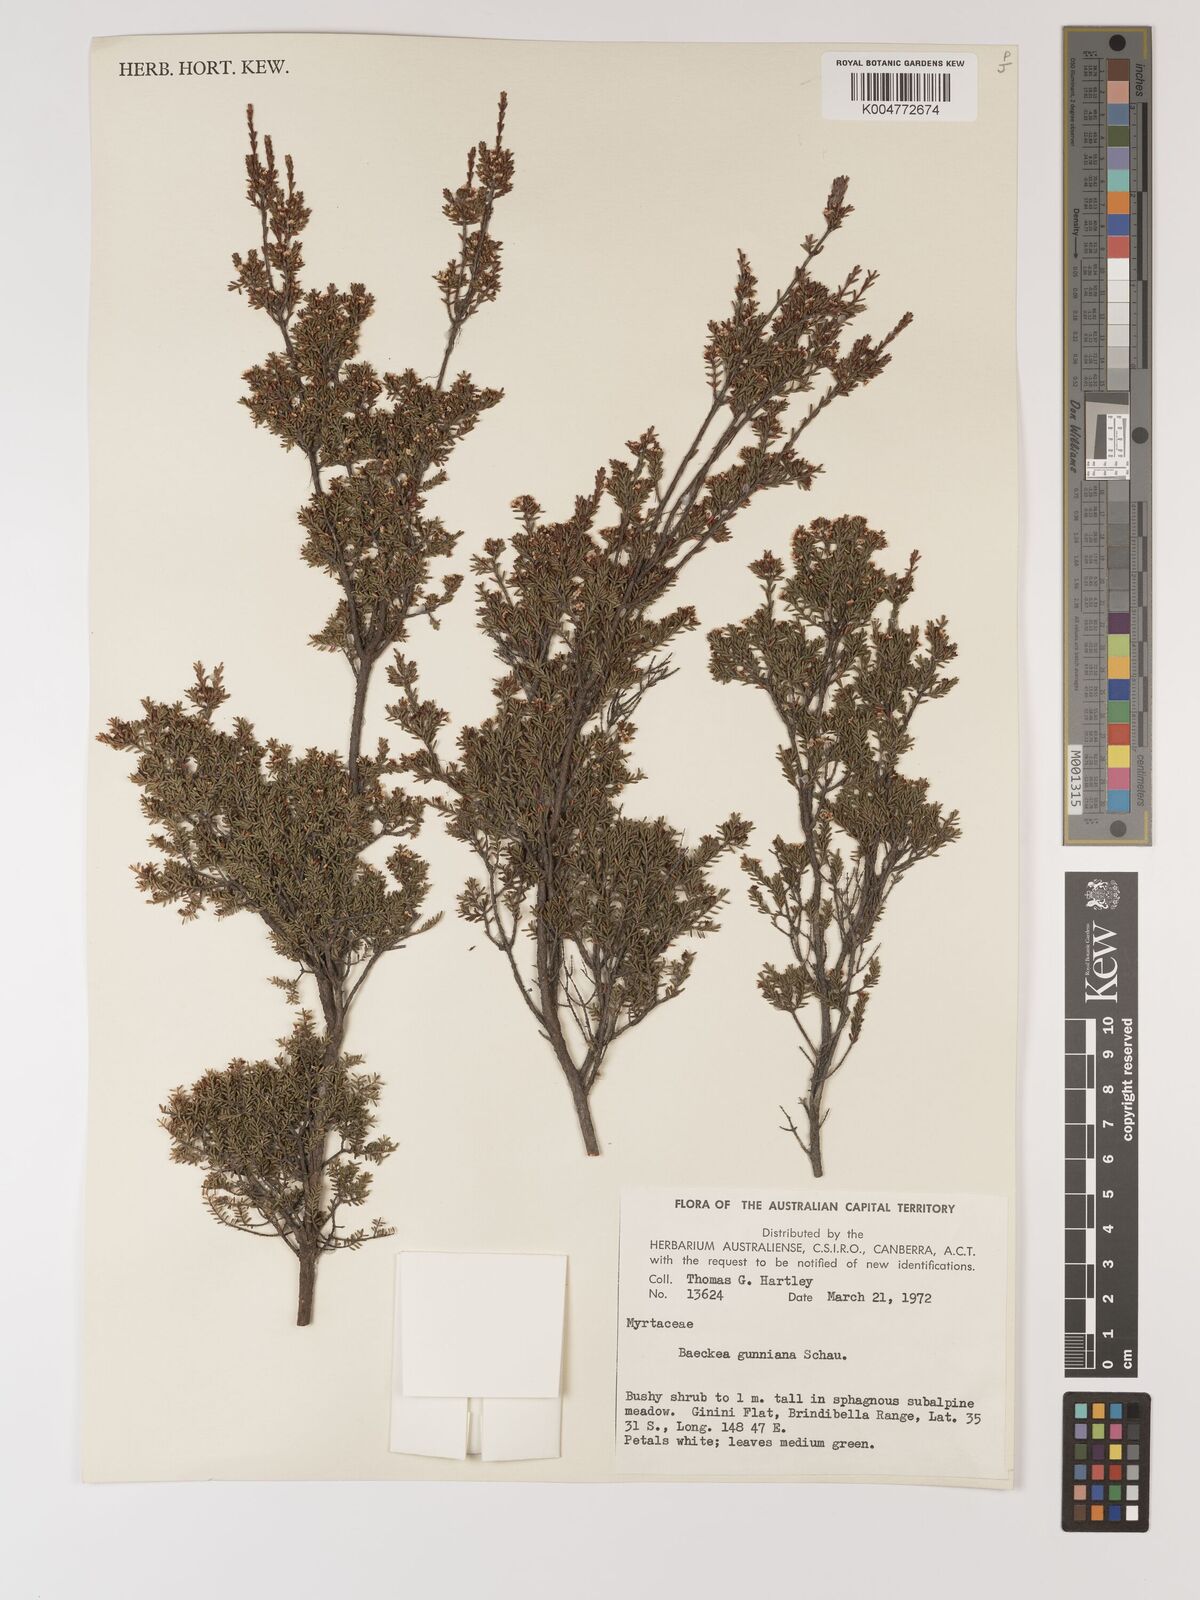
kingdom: Plantae
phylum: Tracheophyta
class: Magnoliopsida
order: Myrtales
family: Myrtaceae
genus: Baeckea
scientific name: Baeckea gunniana
